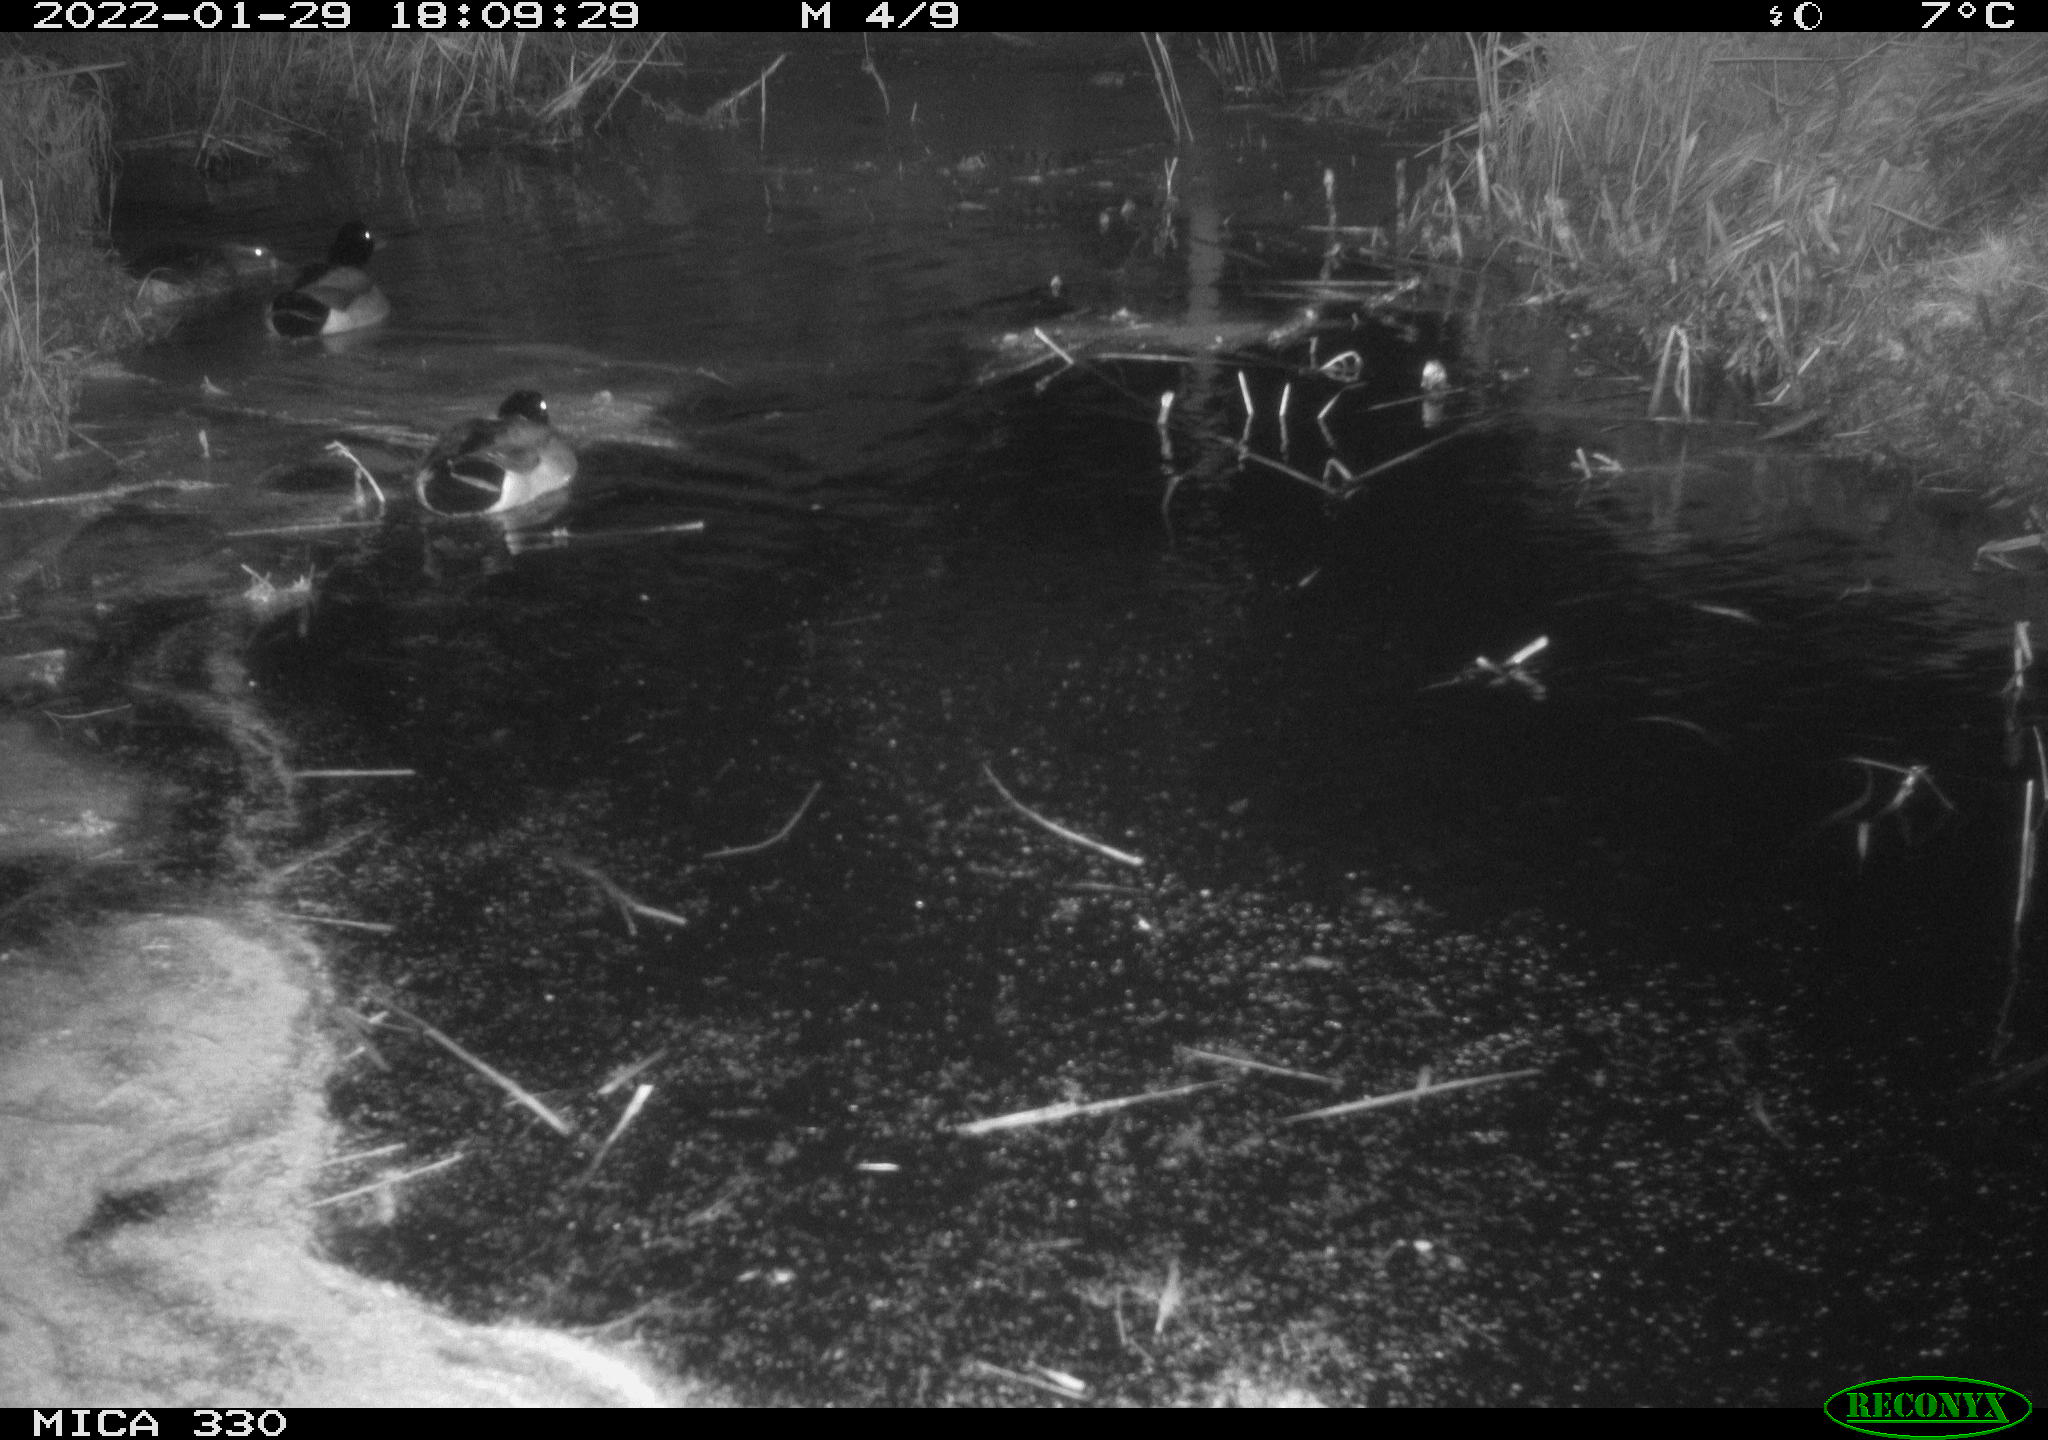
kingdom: Animalia
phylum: Chordata
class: Aves
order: Anseriformes
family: Anatidae
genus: Anas
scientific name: Anas platyrhynchos
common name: Mallard
